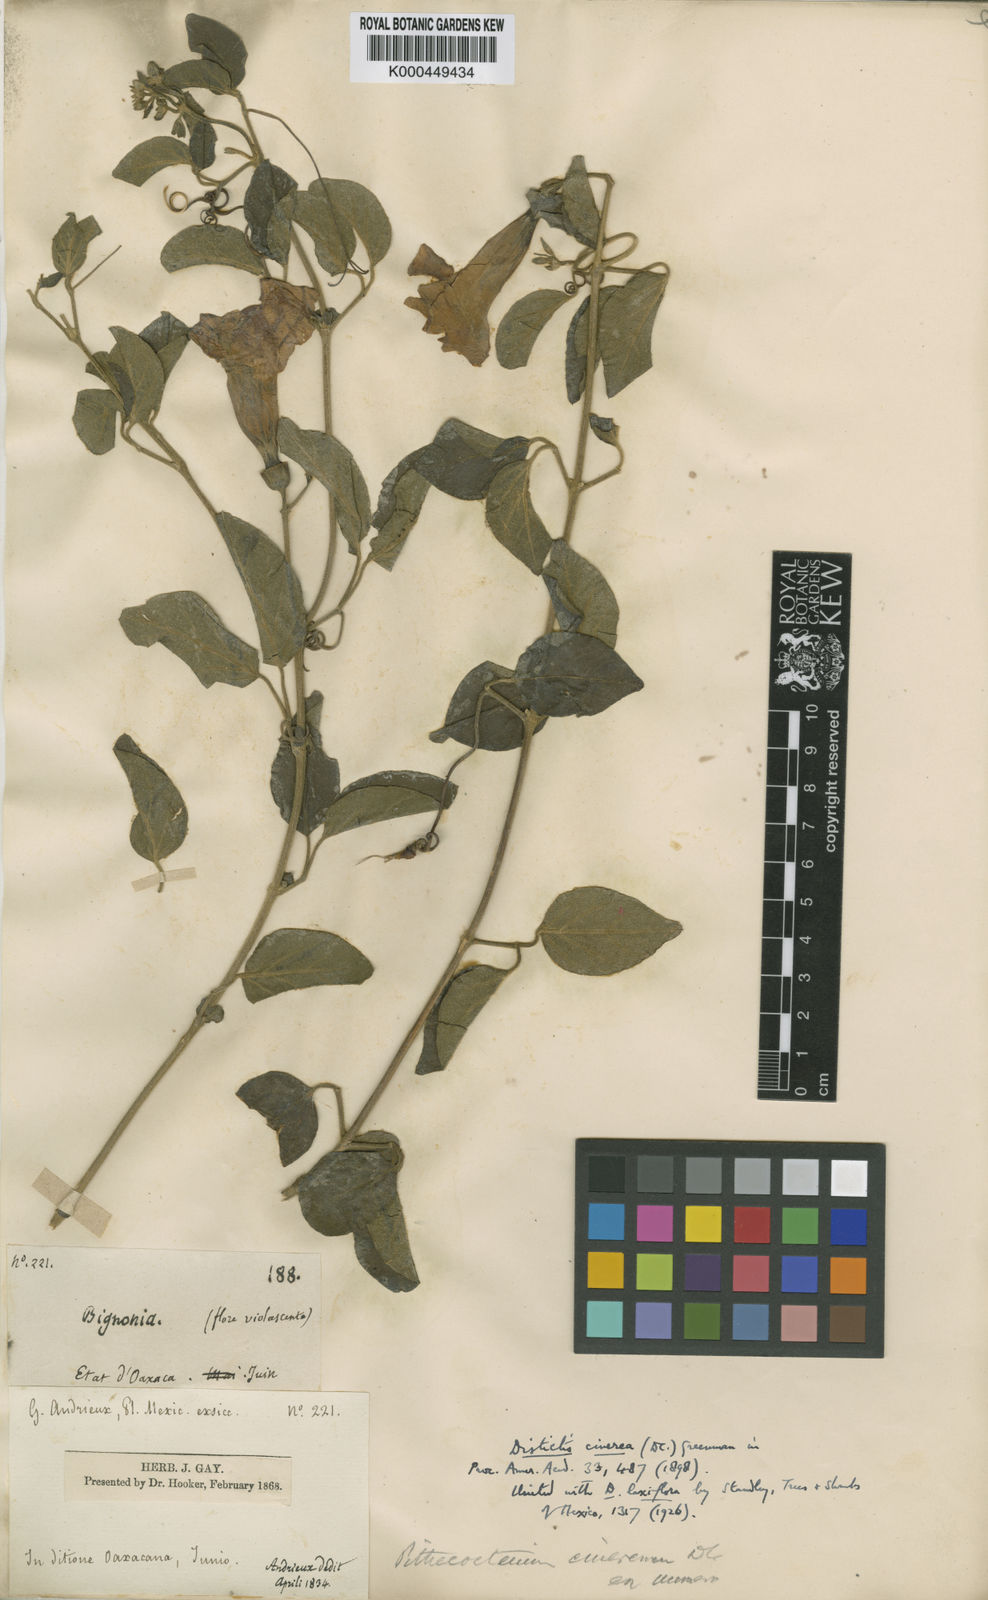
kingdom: Plantae
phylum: Tracheophyta
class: Magnoliopsida
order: Lamiales
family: Bignoniaceae
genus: Amphilophium
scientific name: Amphilophium laxiflorum
